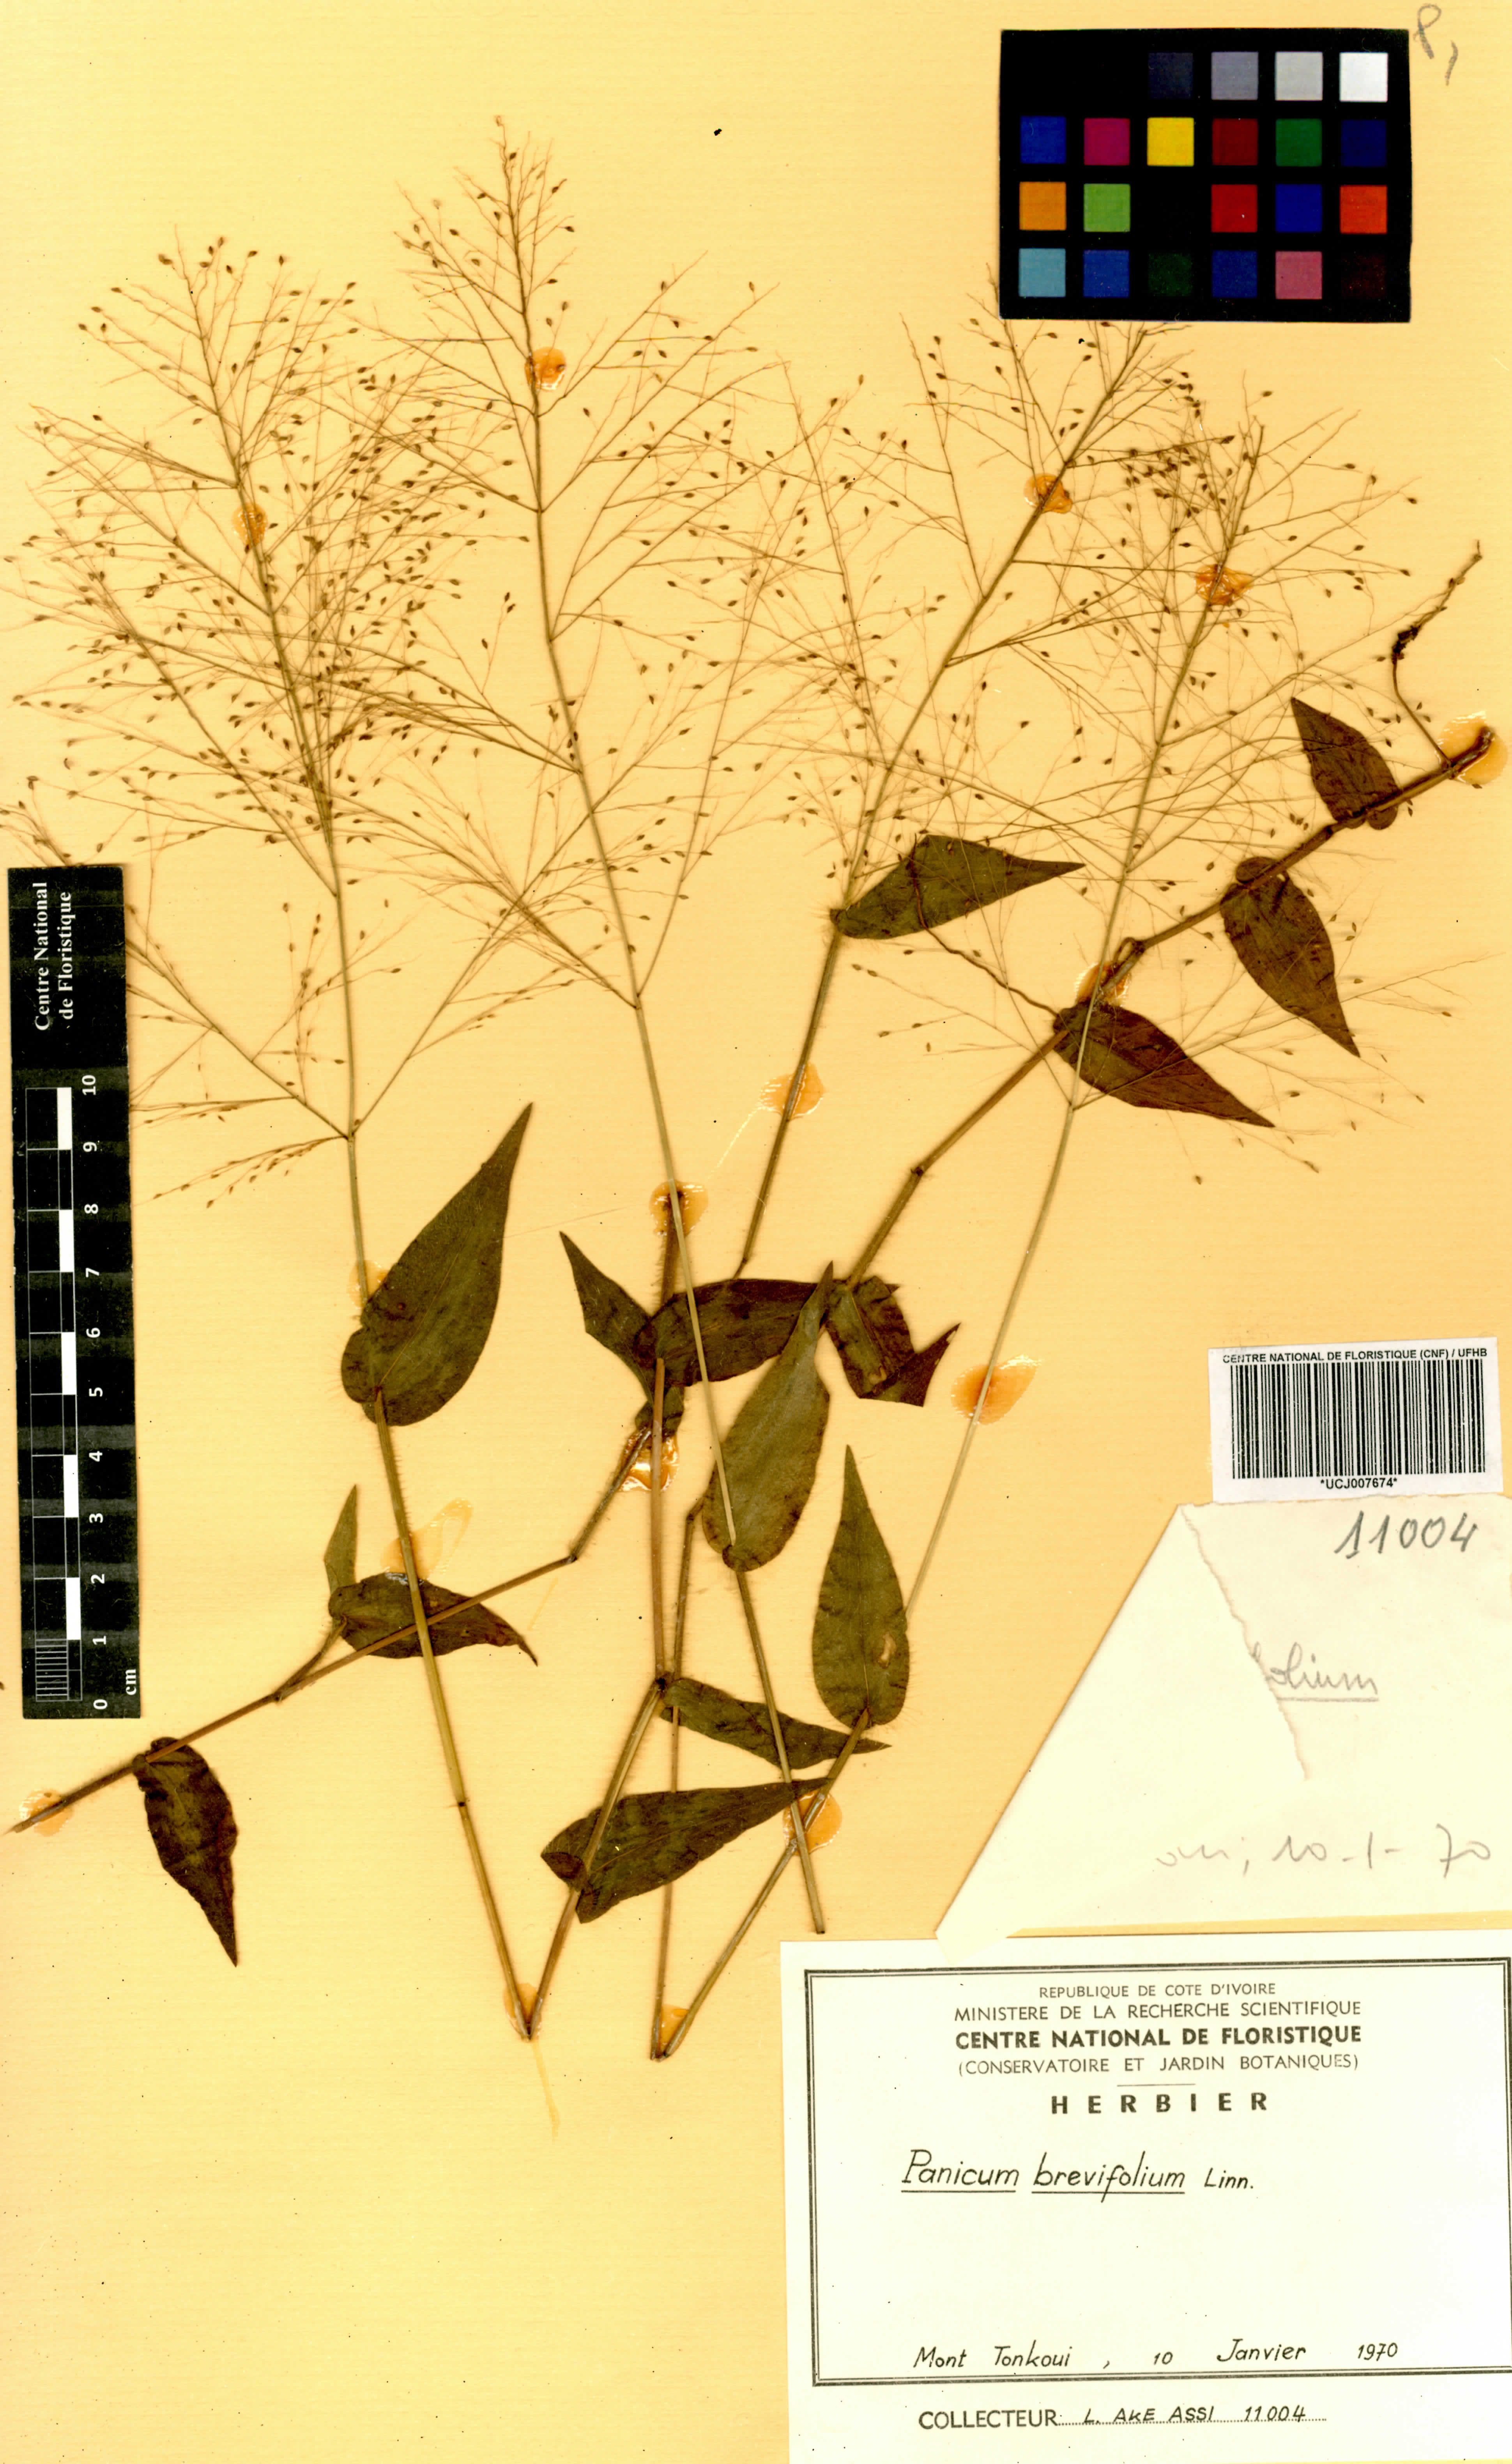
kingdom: Plantae
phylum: Tracheophyta
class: Liliopsida
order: Poales
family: Poaceae
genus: Panicum
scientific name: Panicum brevifolium
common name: Shortleaf panic grass
